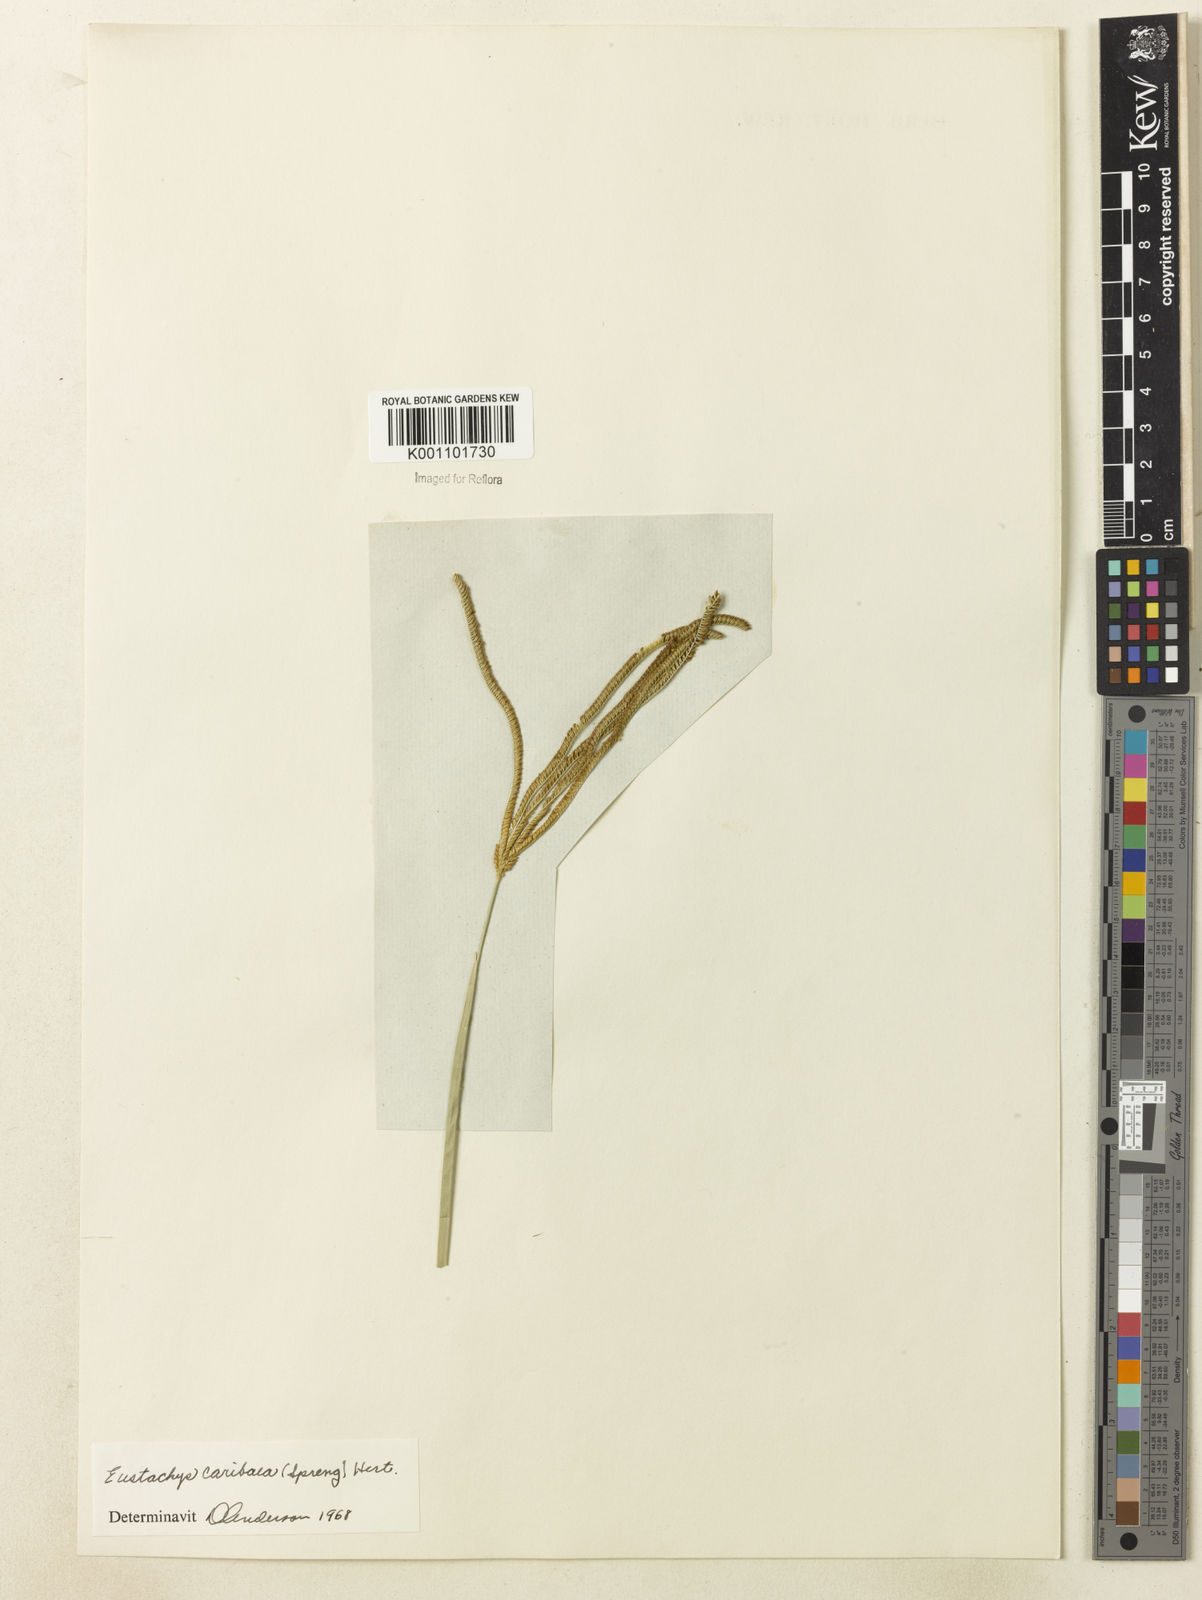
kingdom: Plantae
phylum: Tracheophyta
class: Liliopsida
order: Poales
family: Poaceae
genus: Eustachys
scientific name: Eustachys bahiensis
